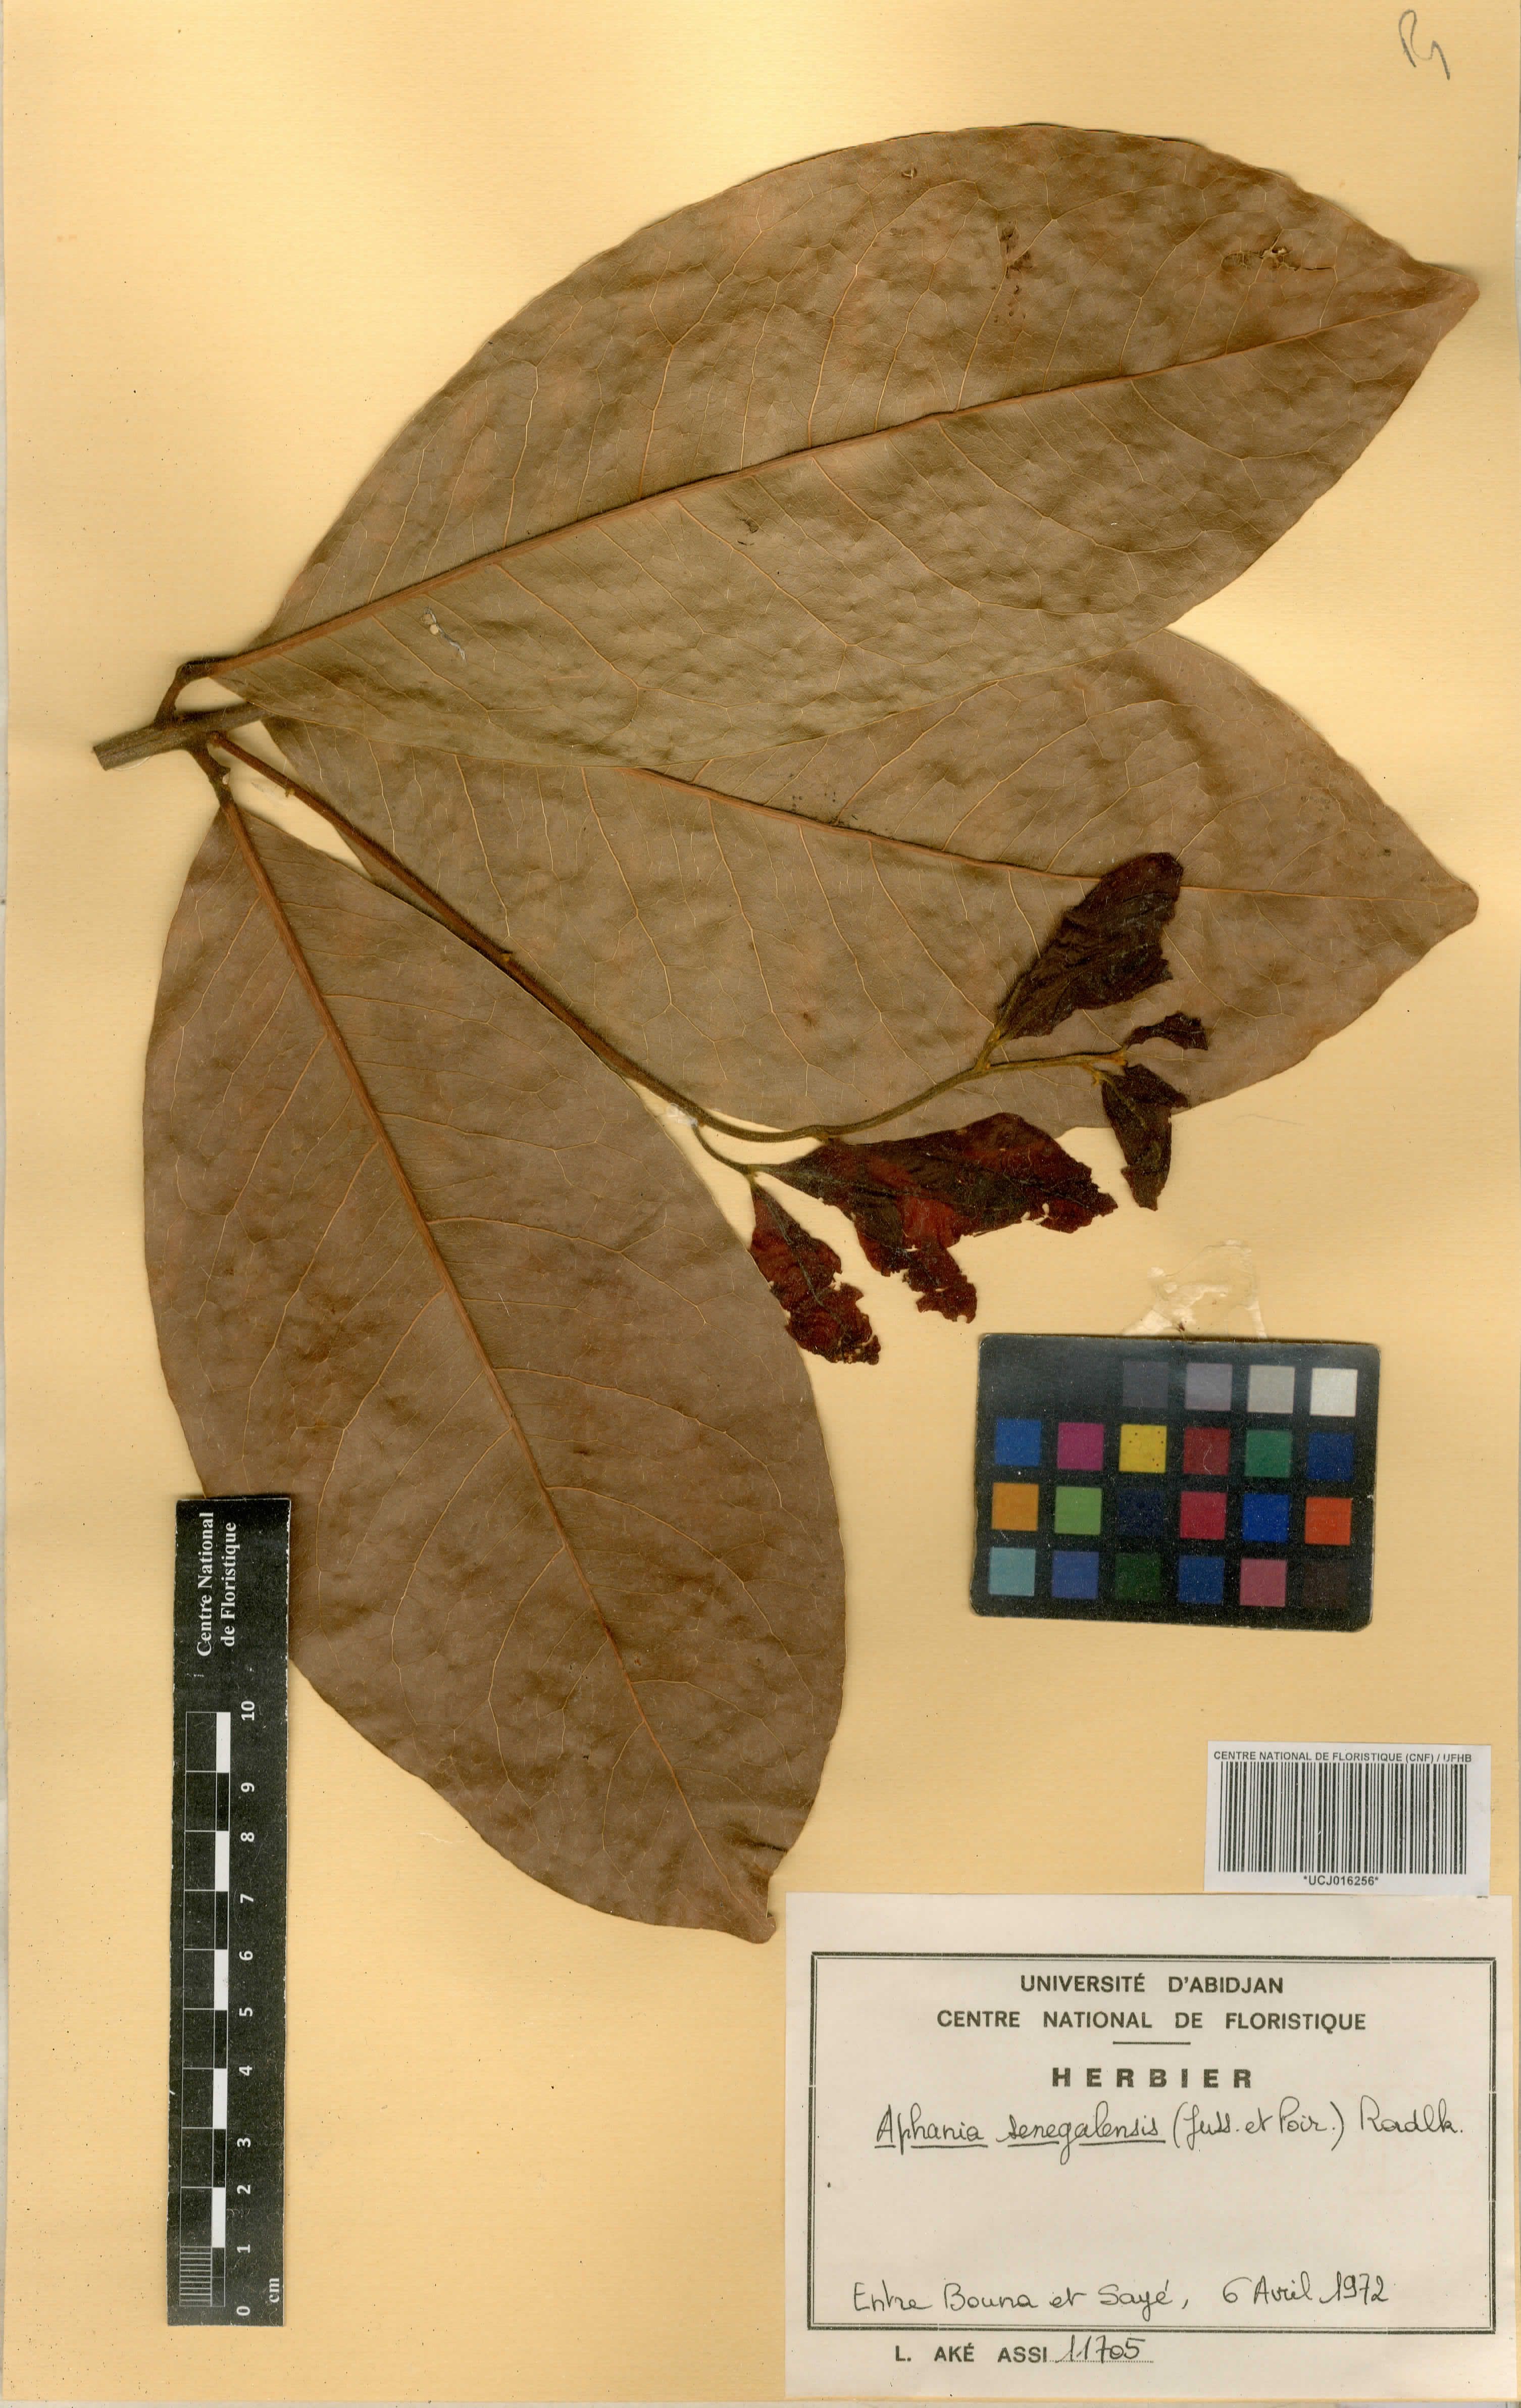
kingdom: Plantae
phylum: Tracheophyta
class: Magnoliopsida
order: Sapindales
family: Sapindaceae
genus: Lepisanthes
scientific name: Lepisanthes senegalensis
